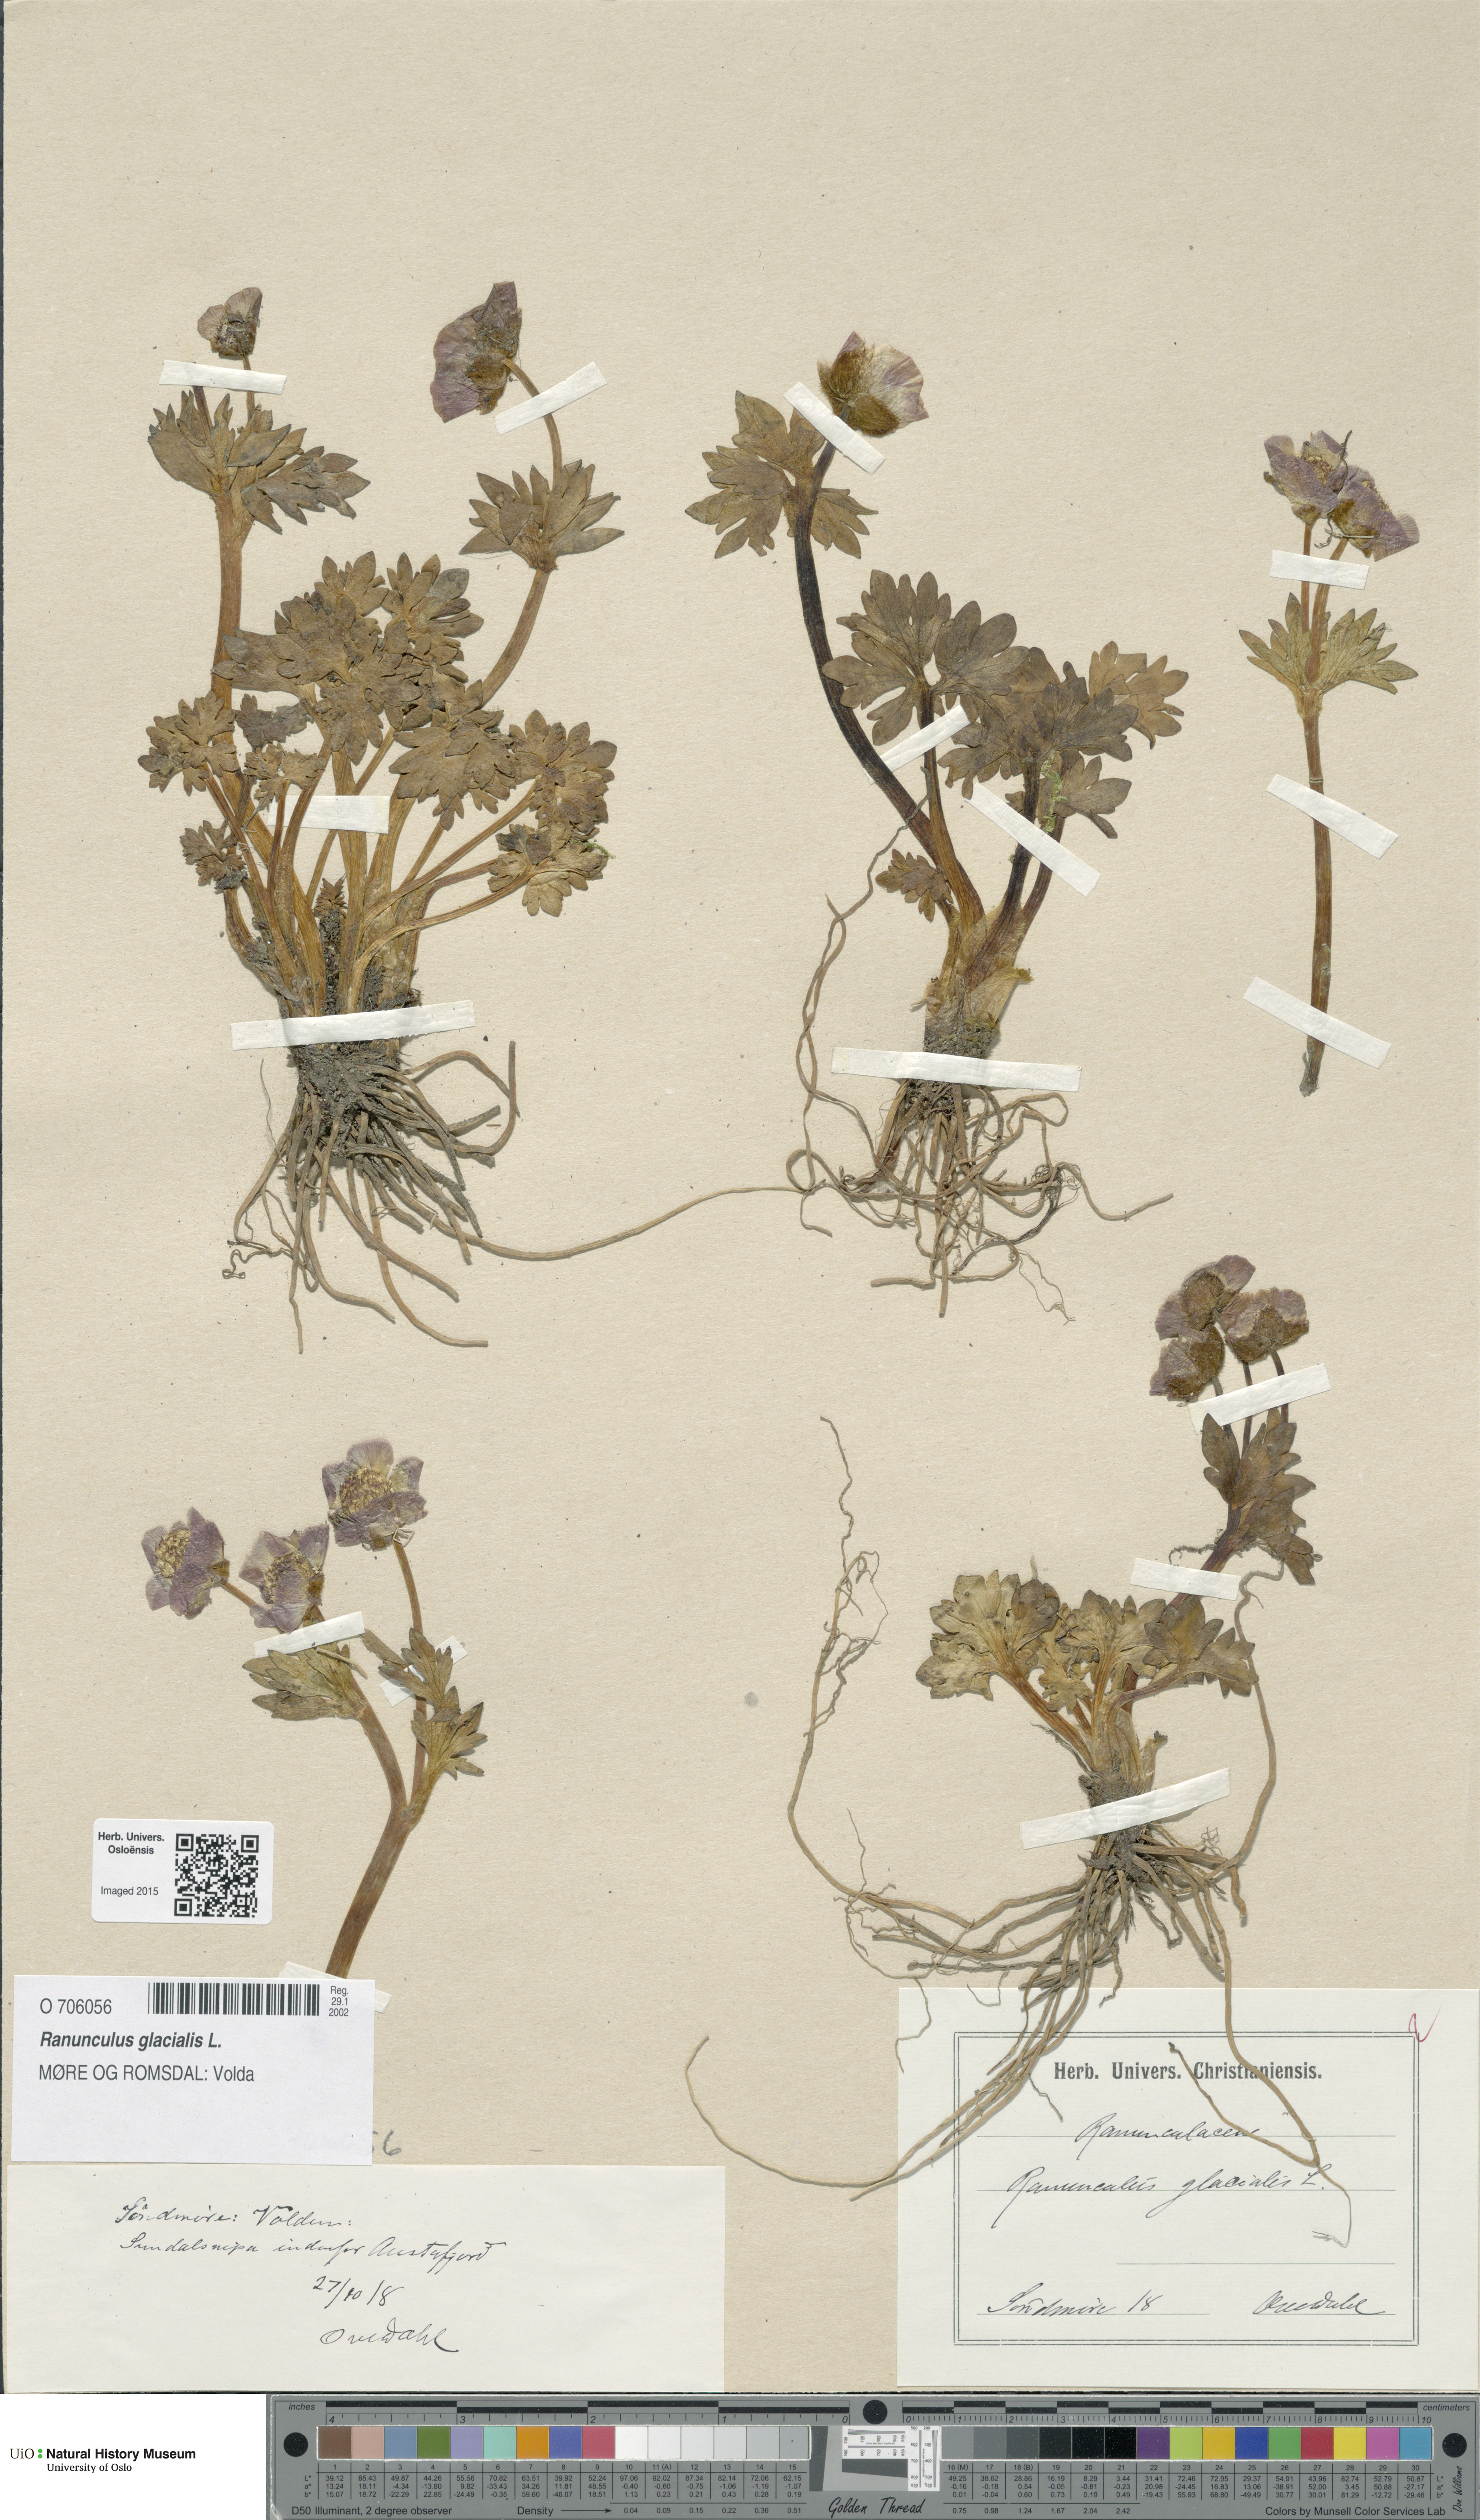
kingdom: Plantae
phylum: Tracheophyta
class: Magnoliopsida
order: Ranunculales
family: Ranunculaceae
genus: Ranunculus
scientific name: Ranunculus glacialis
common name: Glacier buttercup
